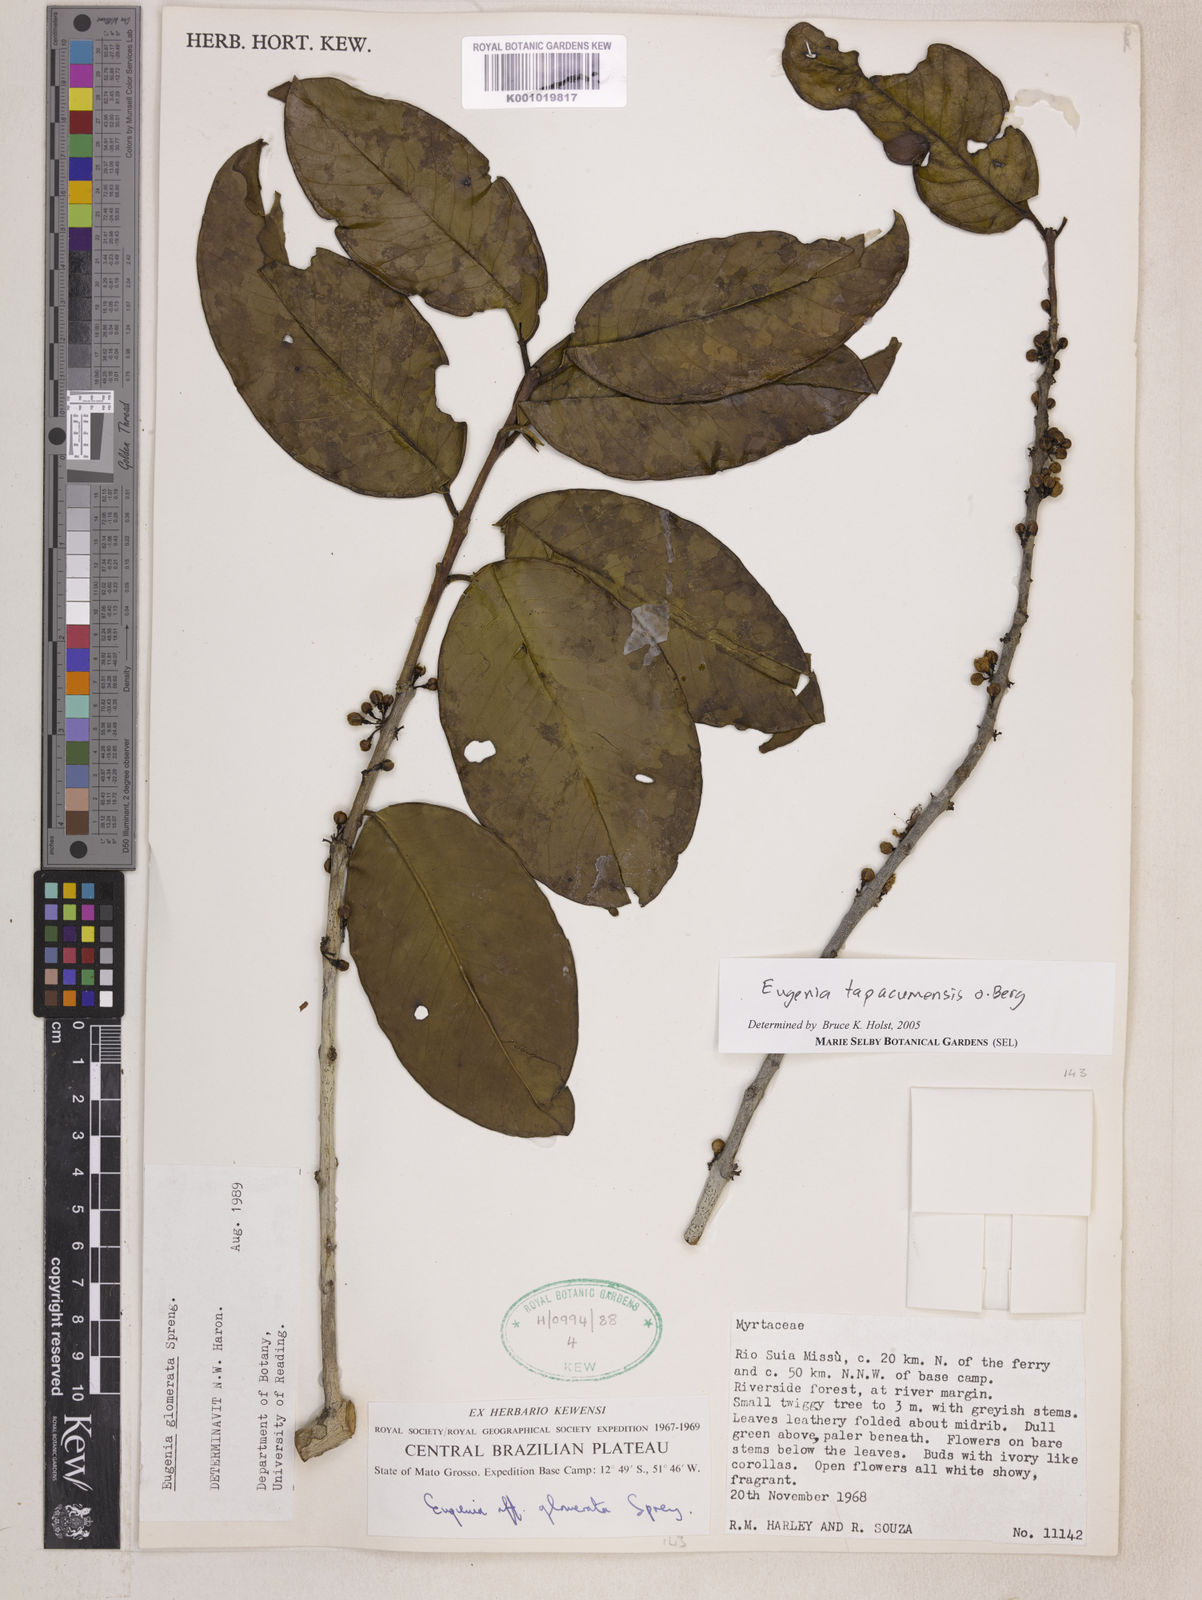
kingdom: Plantae
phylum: Tracheophyta
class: Magnoliopsida
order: Myrtales
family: Myrtaceae
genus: Eugenia
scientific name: Eugenia stictopetala
